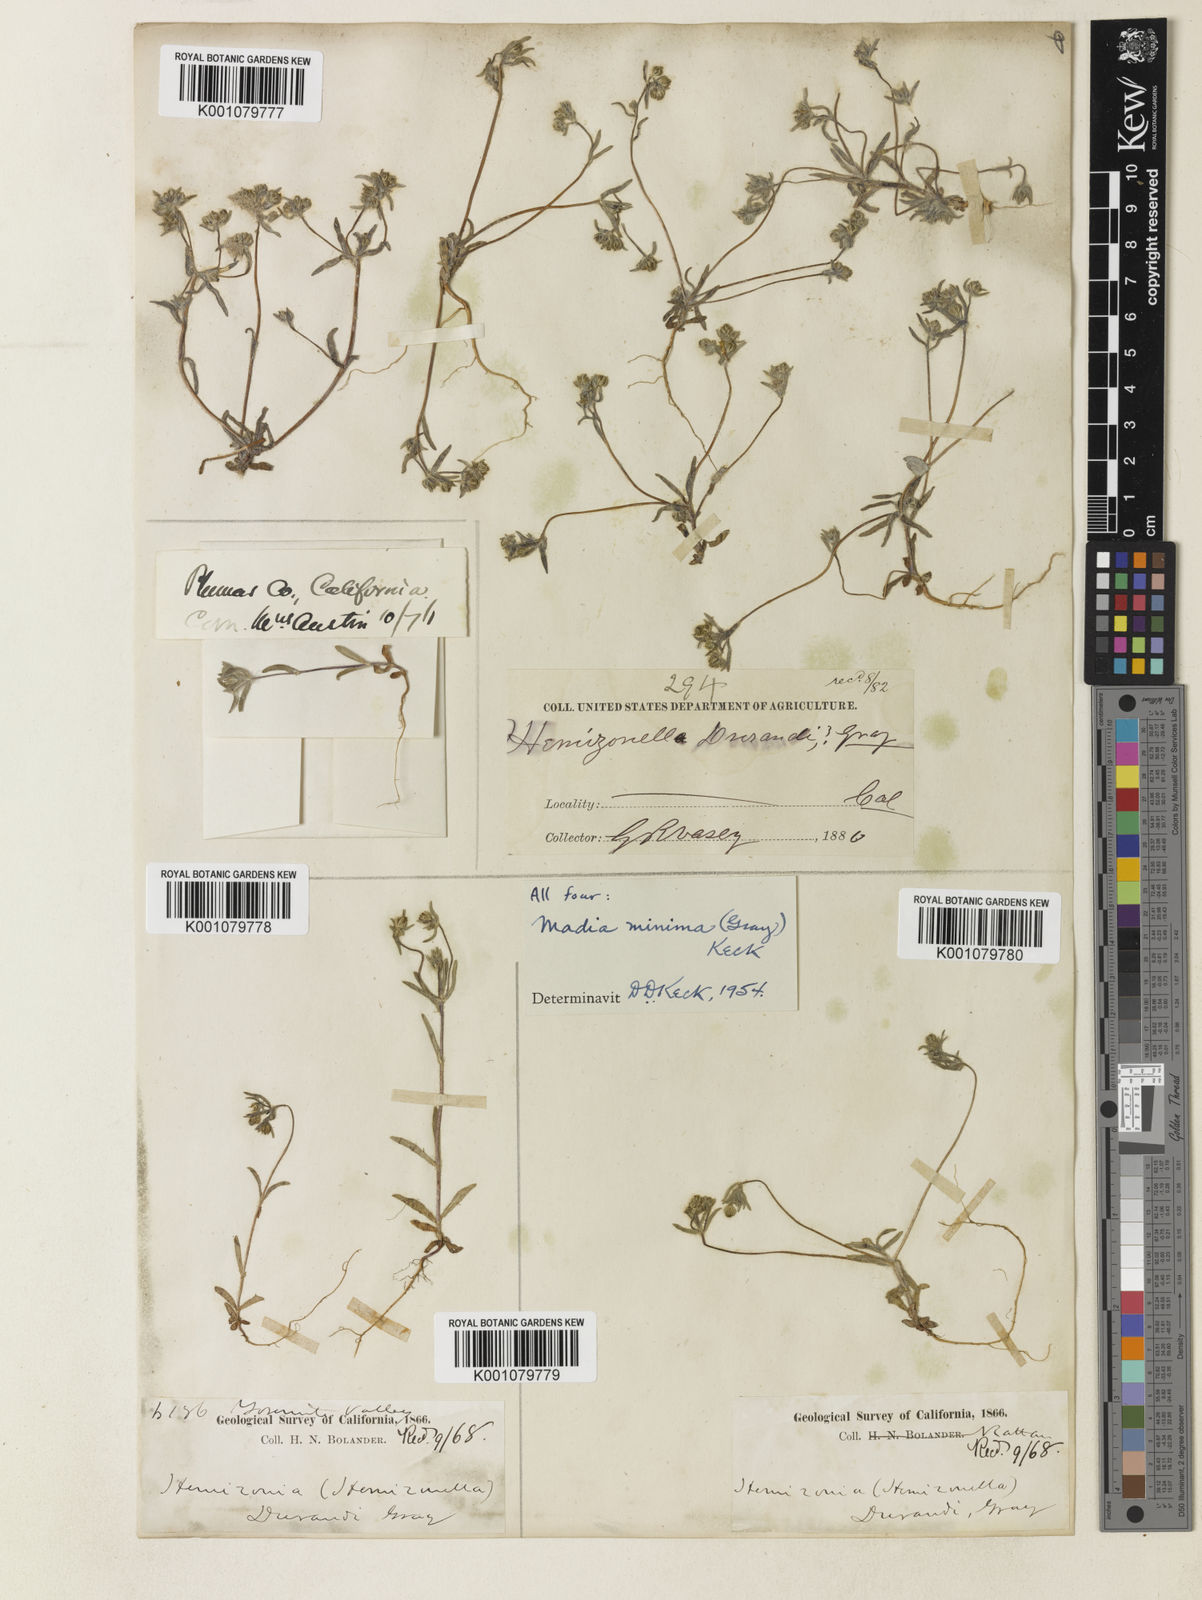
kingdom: Plantae
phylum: Tracheophyta
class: Magnoliopsida
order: Asterales
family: Asteraceae
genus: Hemizonella
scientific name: Hemizonella minima
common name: Opposite-leaved tarweed
